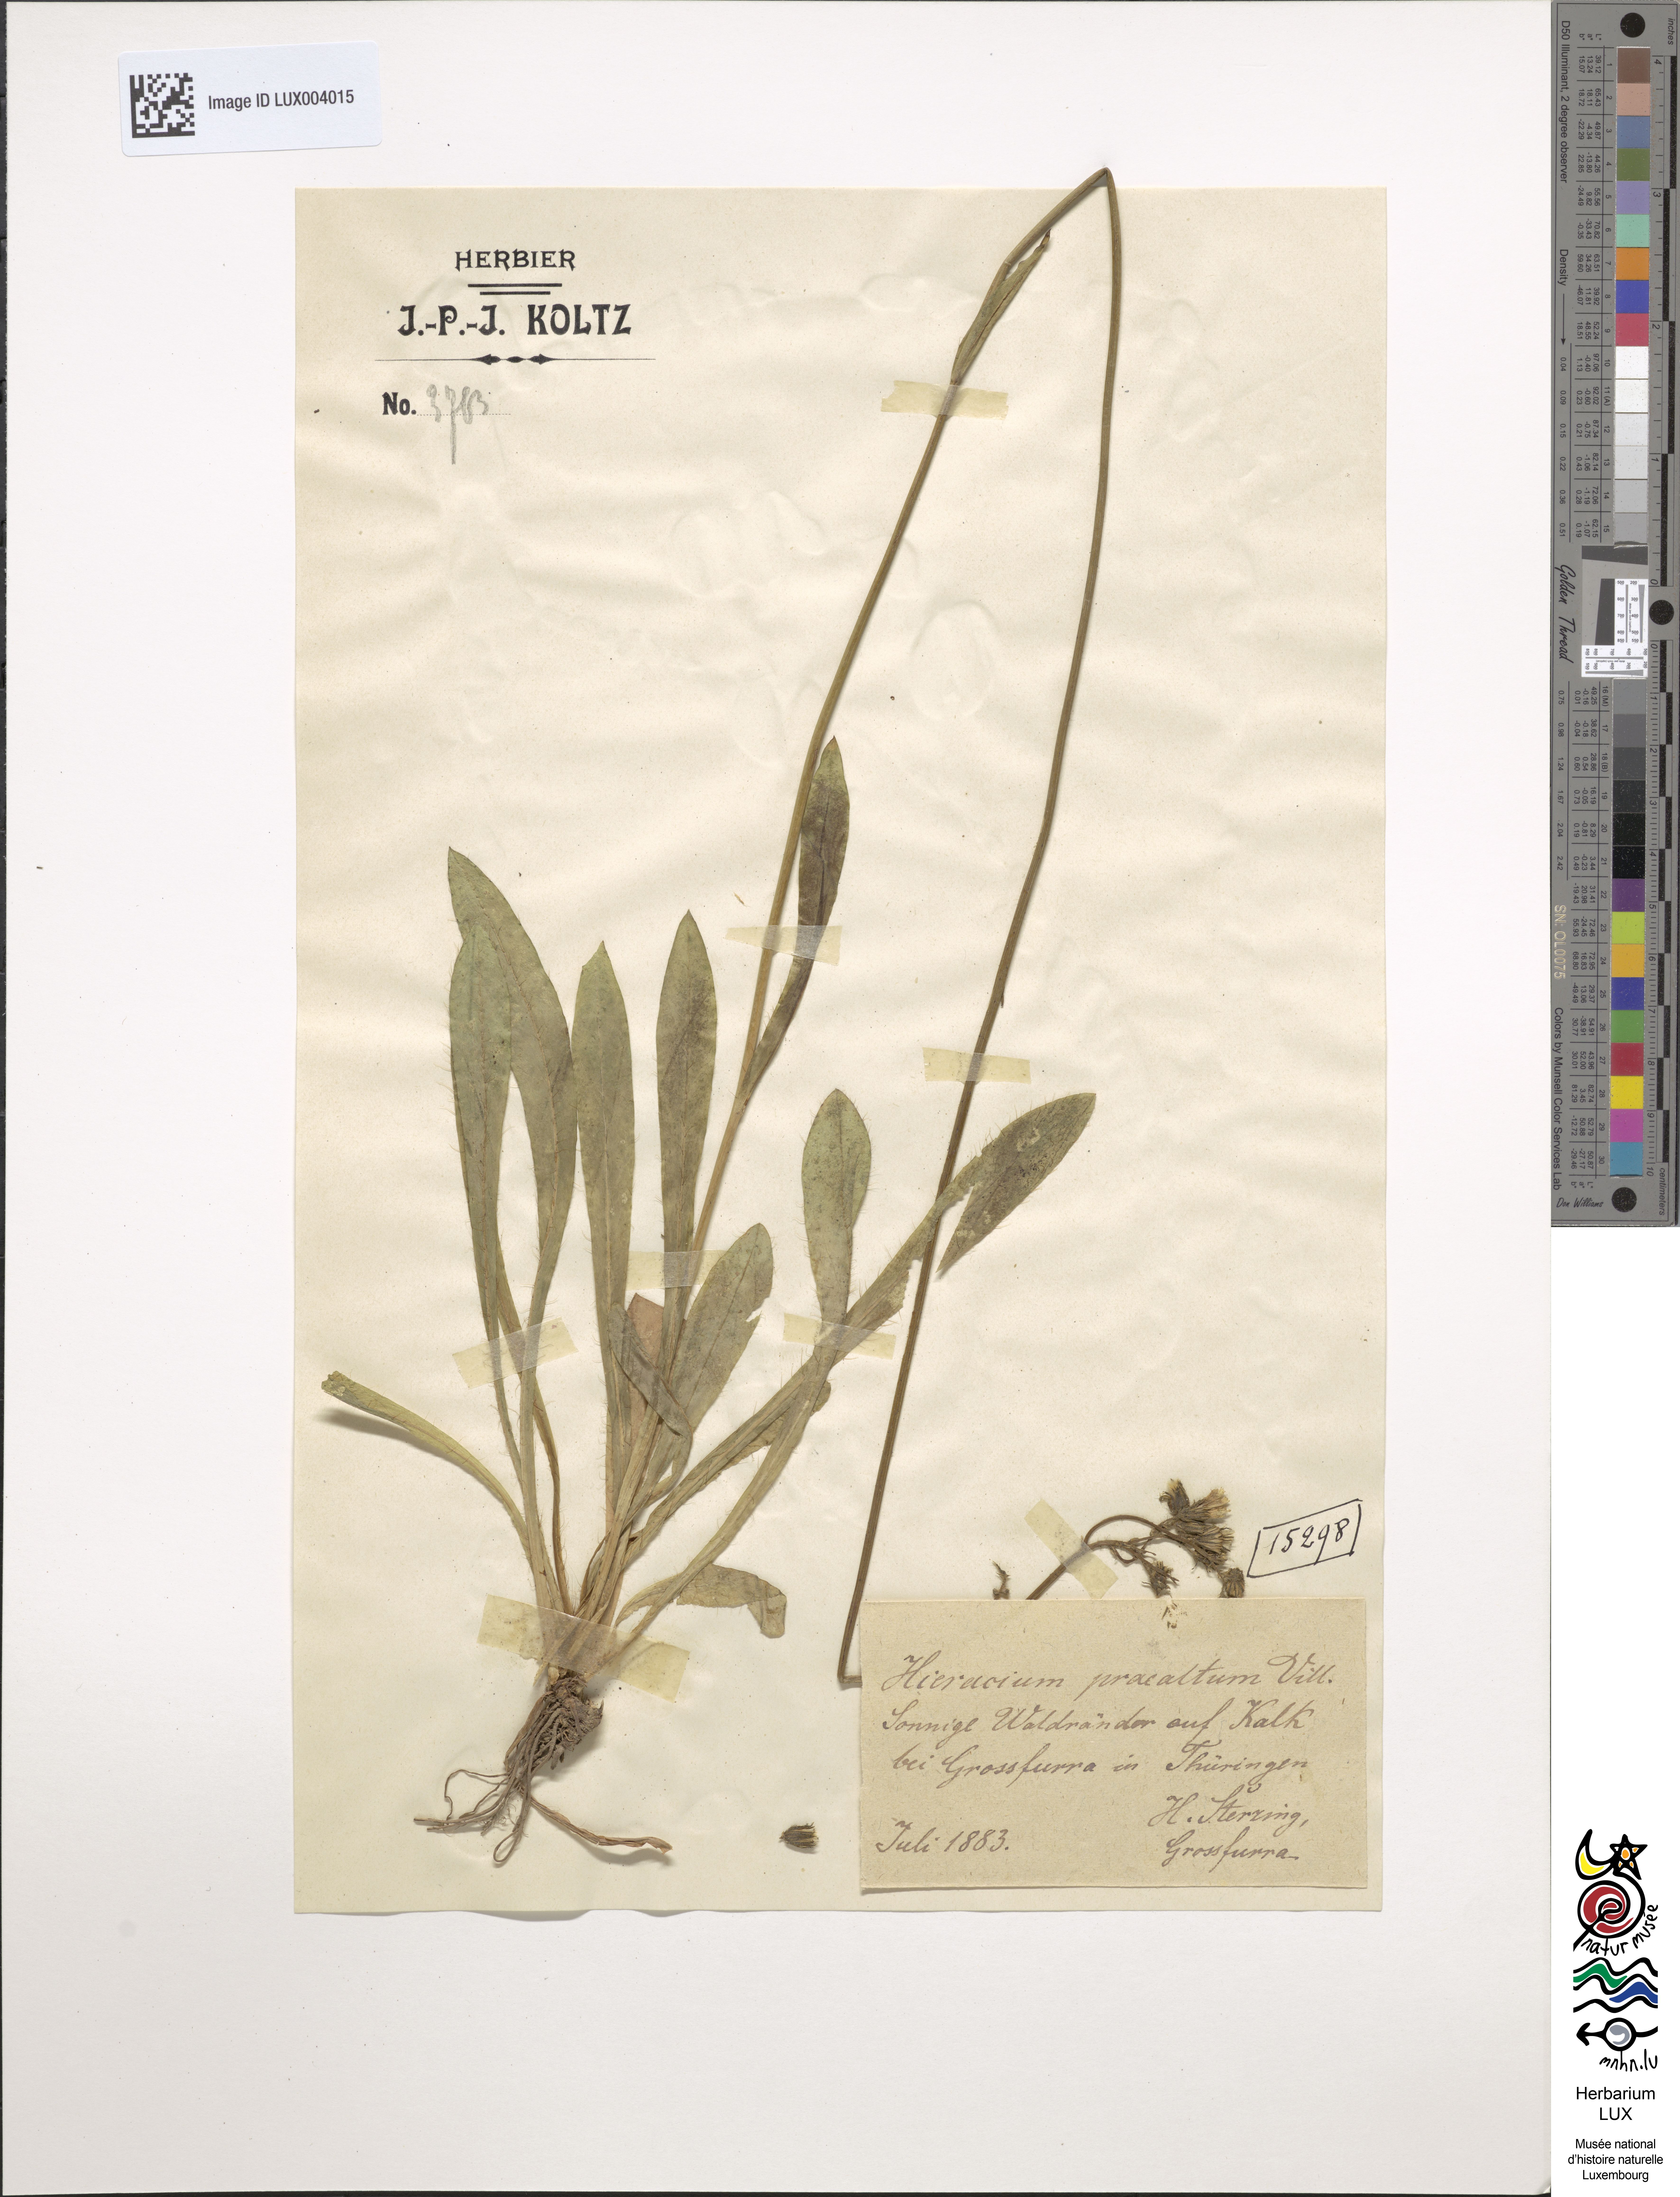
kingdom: Plantae
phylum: Tracheophyta
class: Magnoliopsida
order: Asterales
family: Asteraceae
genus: Pilosella
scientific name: Pilosella piloselloides
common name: Glaucous king-devil
